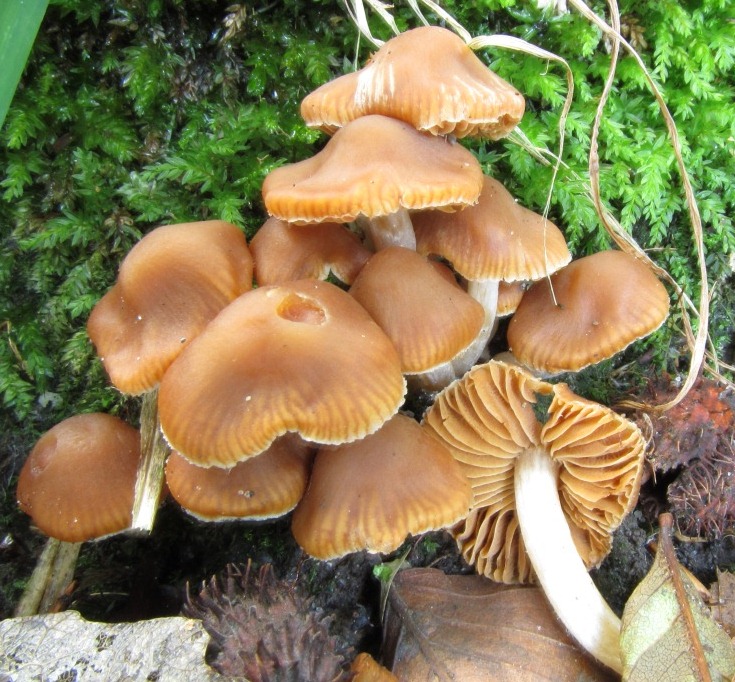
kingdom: Fungi
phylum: Basidiomycota
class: Agaricomycetes
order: Agaricales
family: Cortinariaceae
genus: Cortinarius
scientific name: Cortinarius
